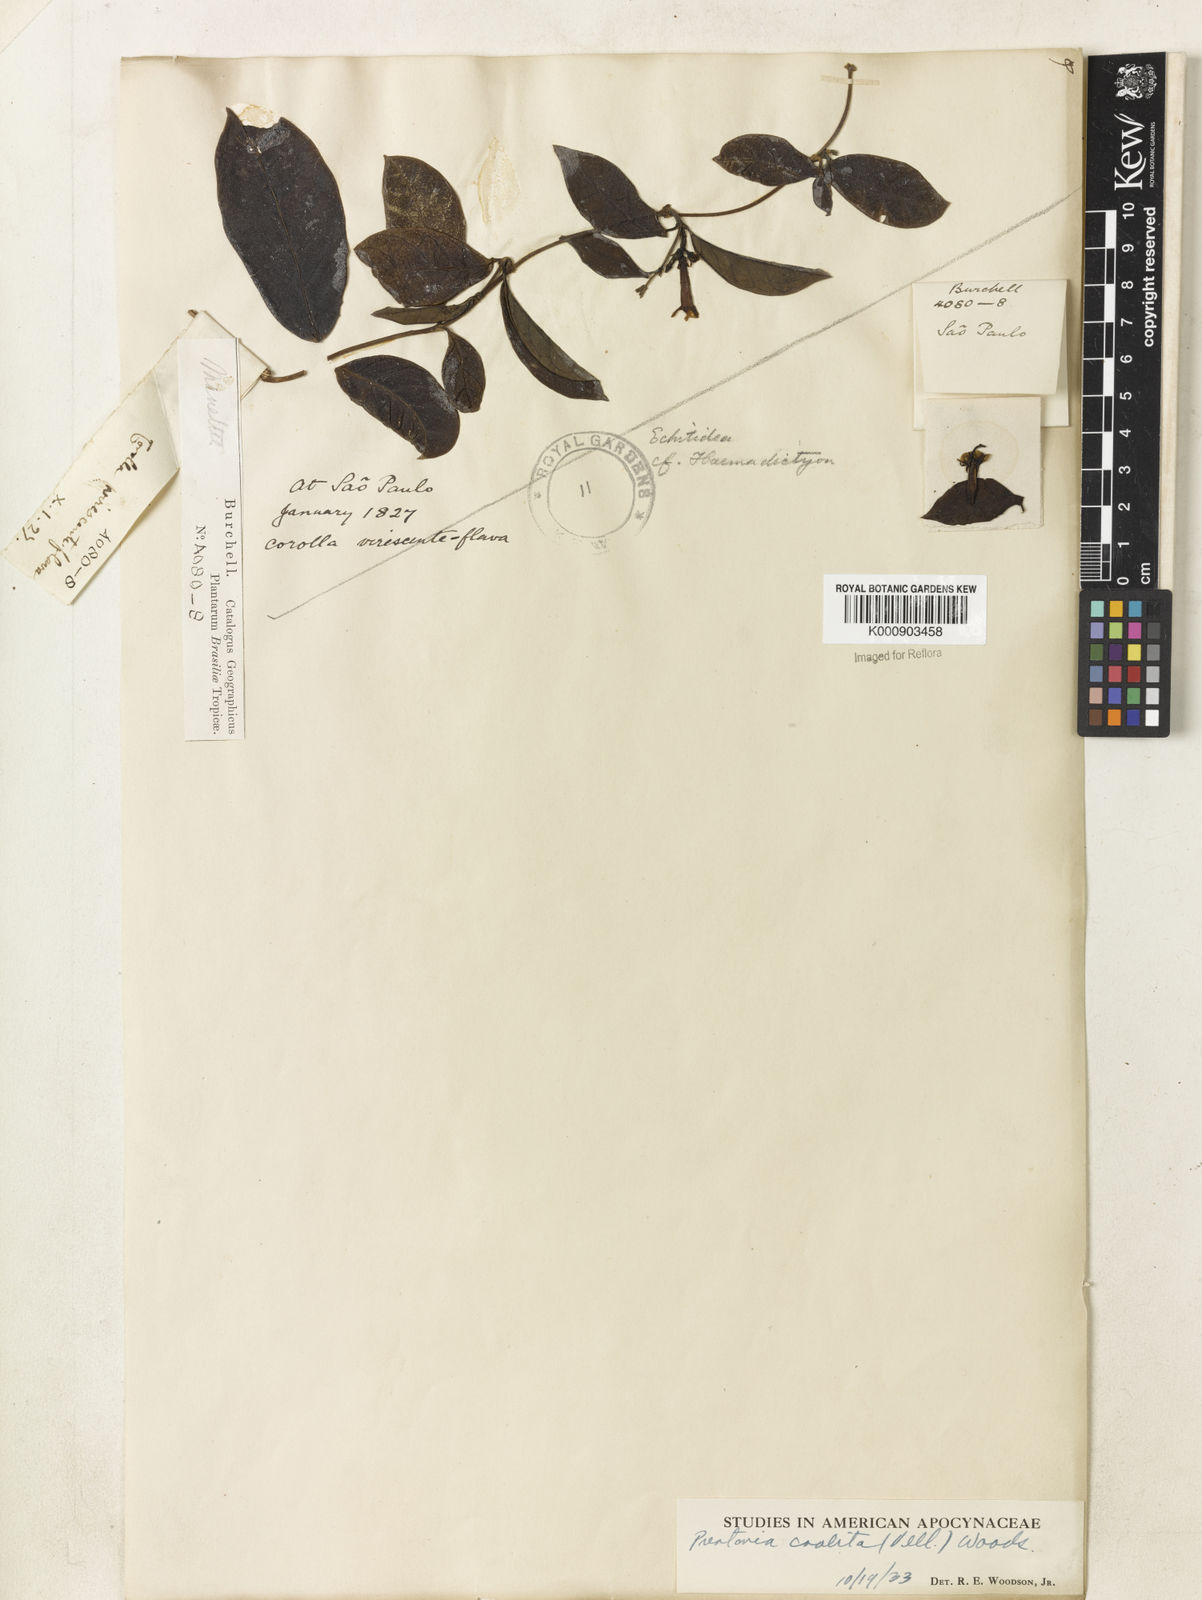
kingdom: Plantae
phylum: Tracheophyta
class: Magnoliopsida
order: Gentianales
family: Apocynaceae
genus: Prestonia
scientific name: Prestonia coalita
